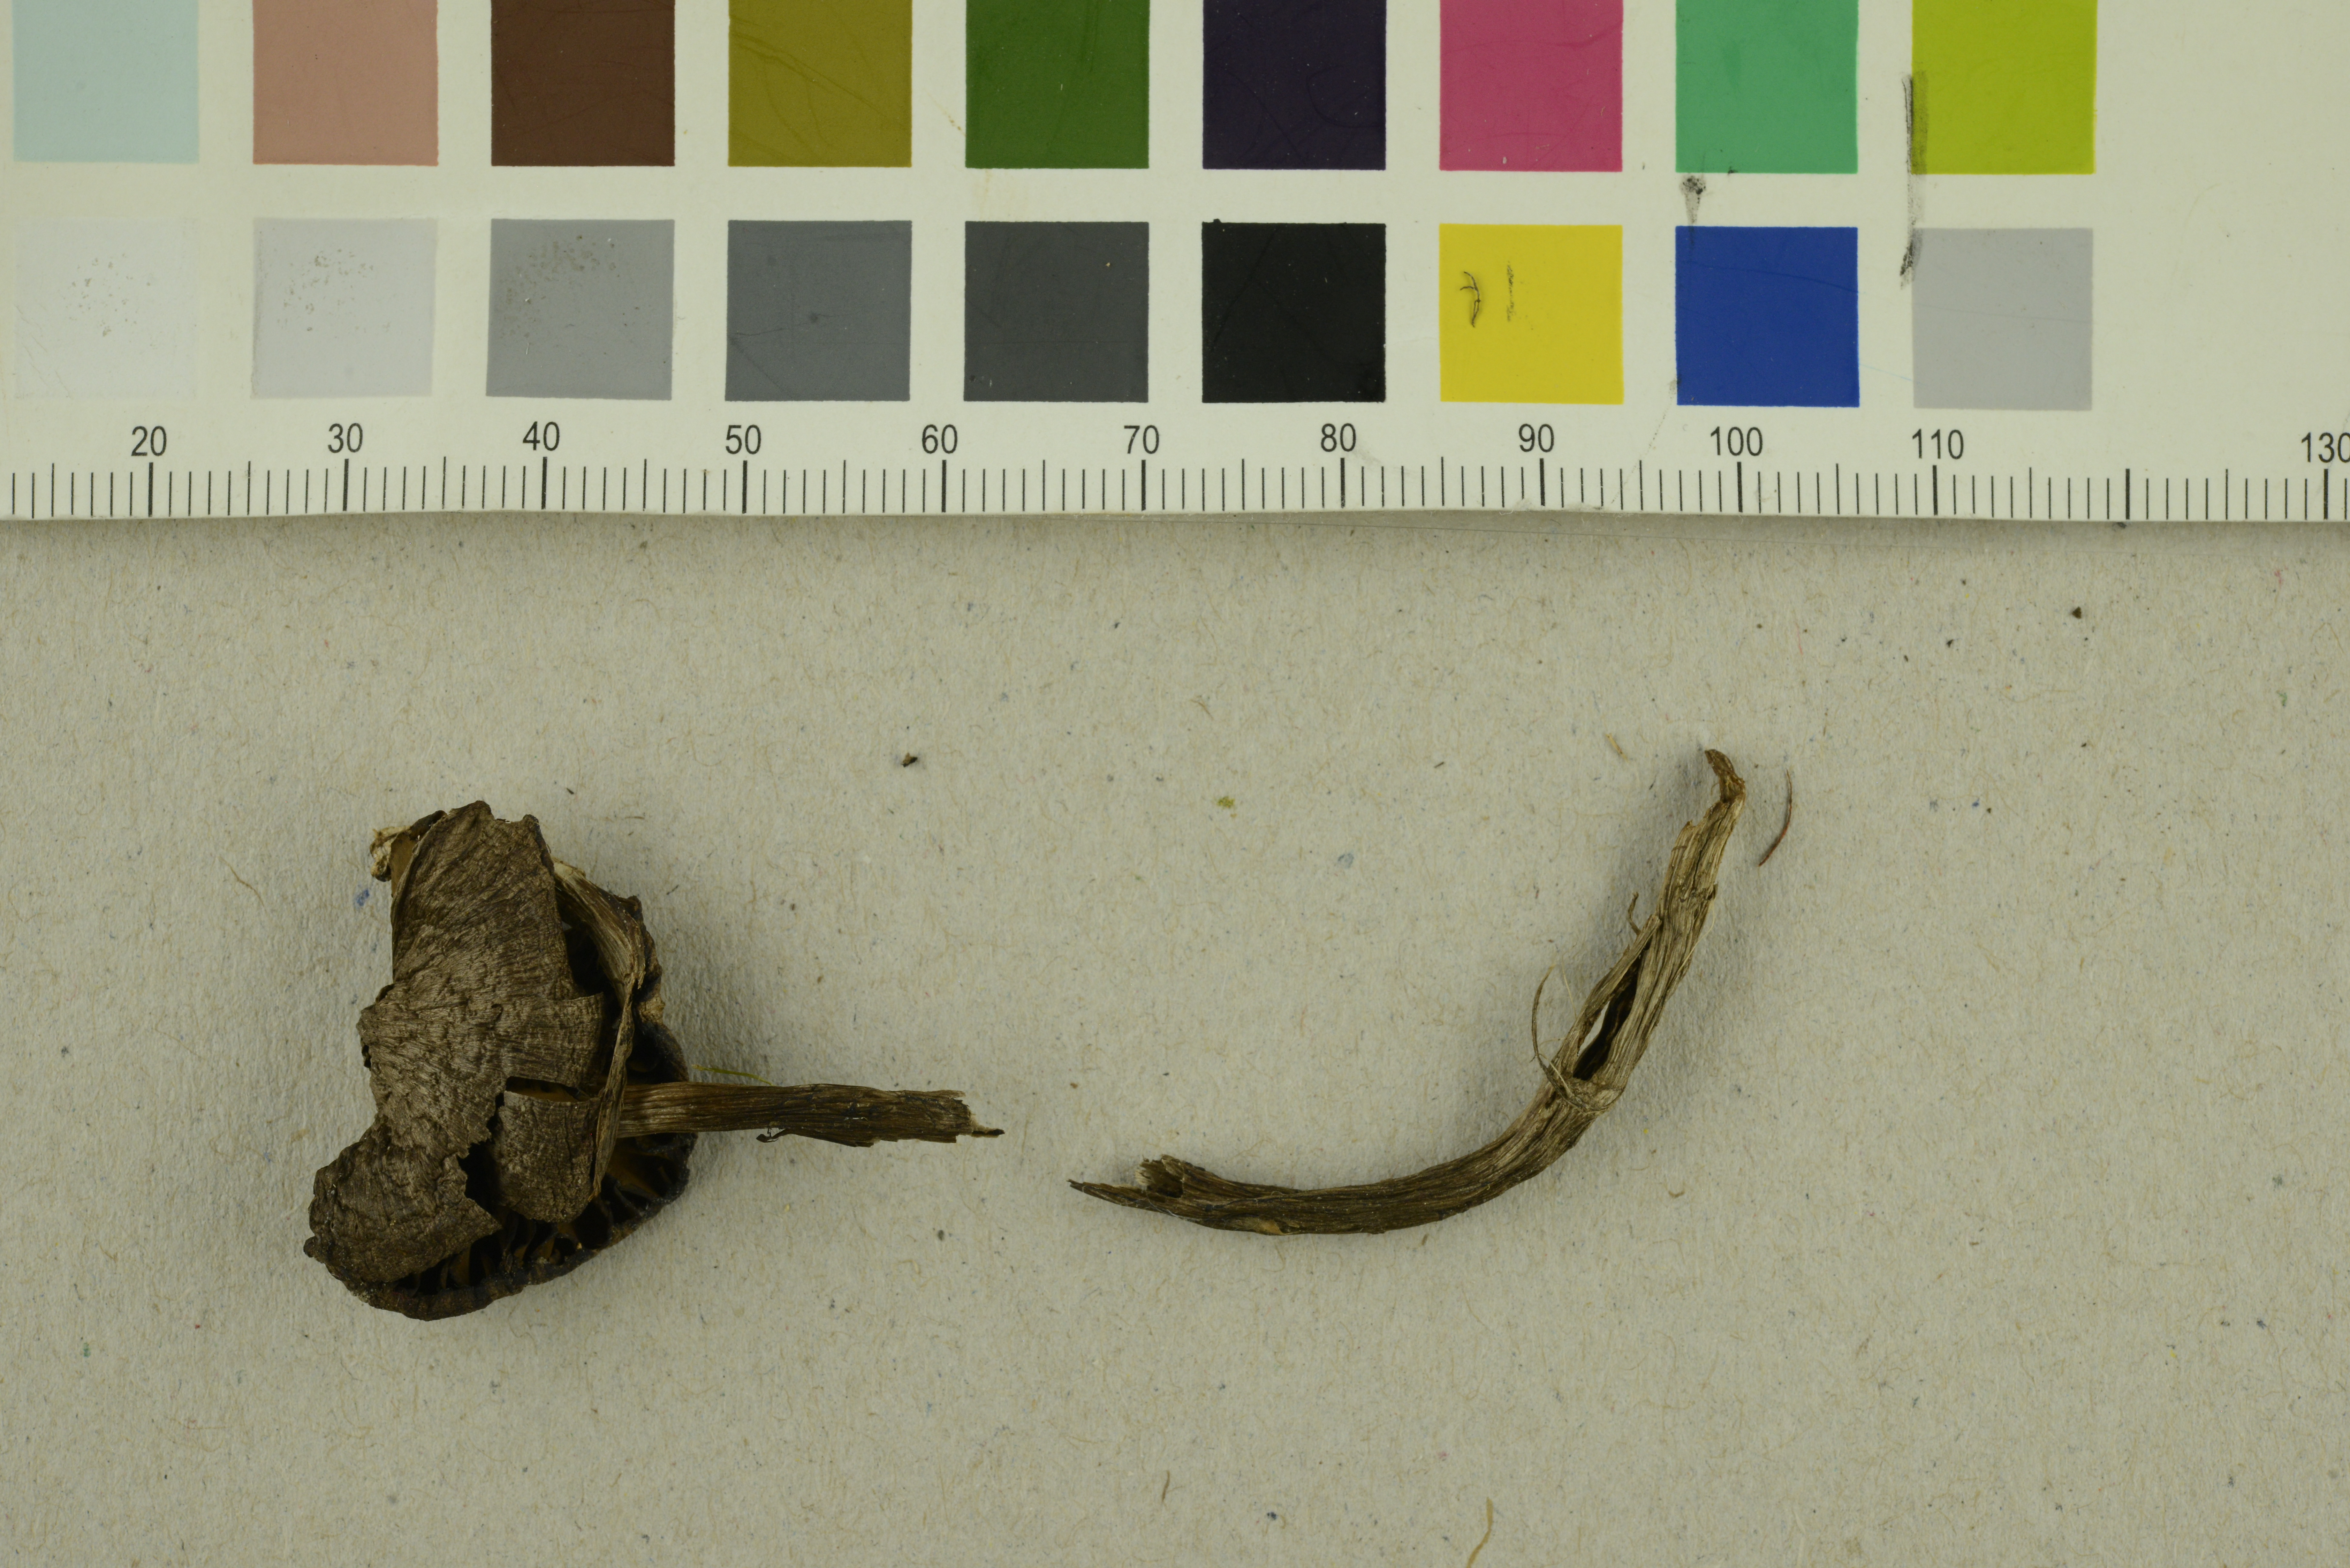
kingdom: Fungi
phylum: Basidiomycota
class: Agaricomycetes
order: Agaricales
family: Cortinariaceae
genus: Cortinarius
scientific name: Cortinarius cicindela
